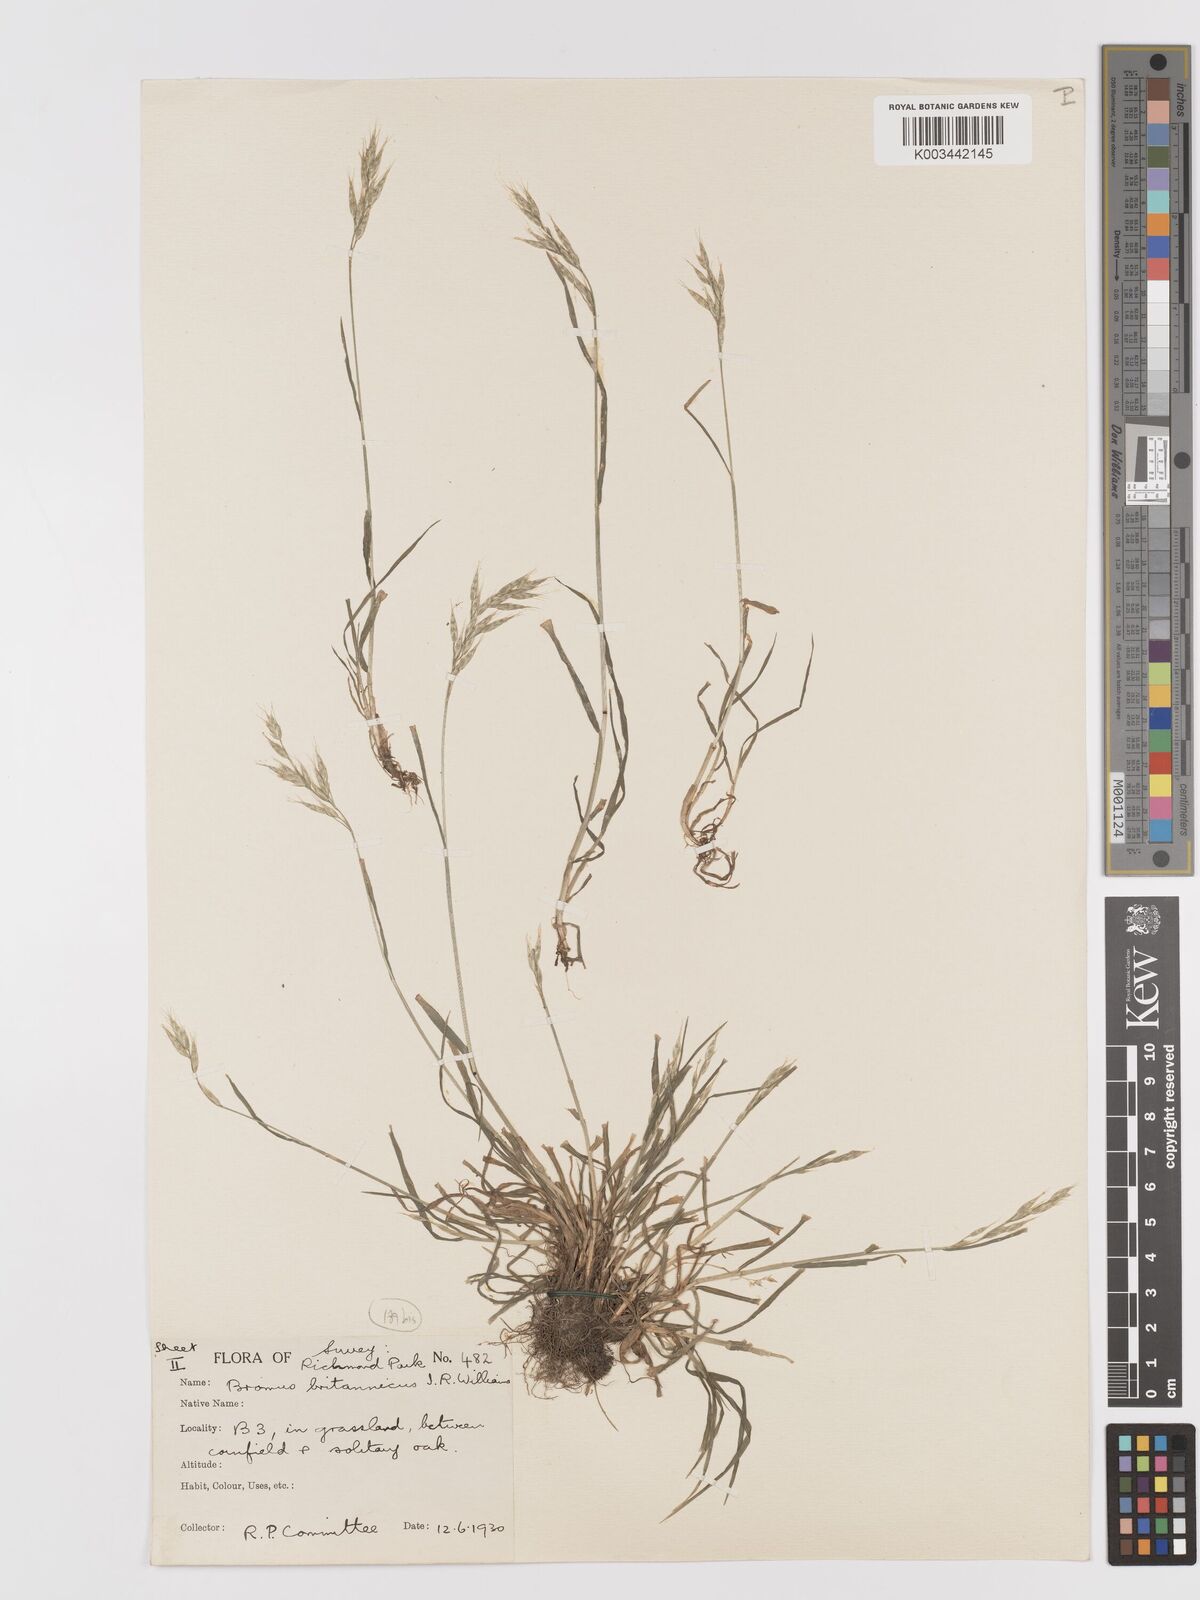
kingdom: Plantae
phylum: Tracheophyta
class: Liliopsida
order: Poales
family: Poaceae
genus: Bromus
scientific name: Bromus lepidus
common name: Slender soft-brome
